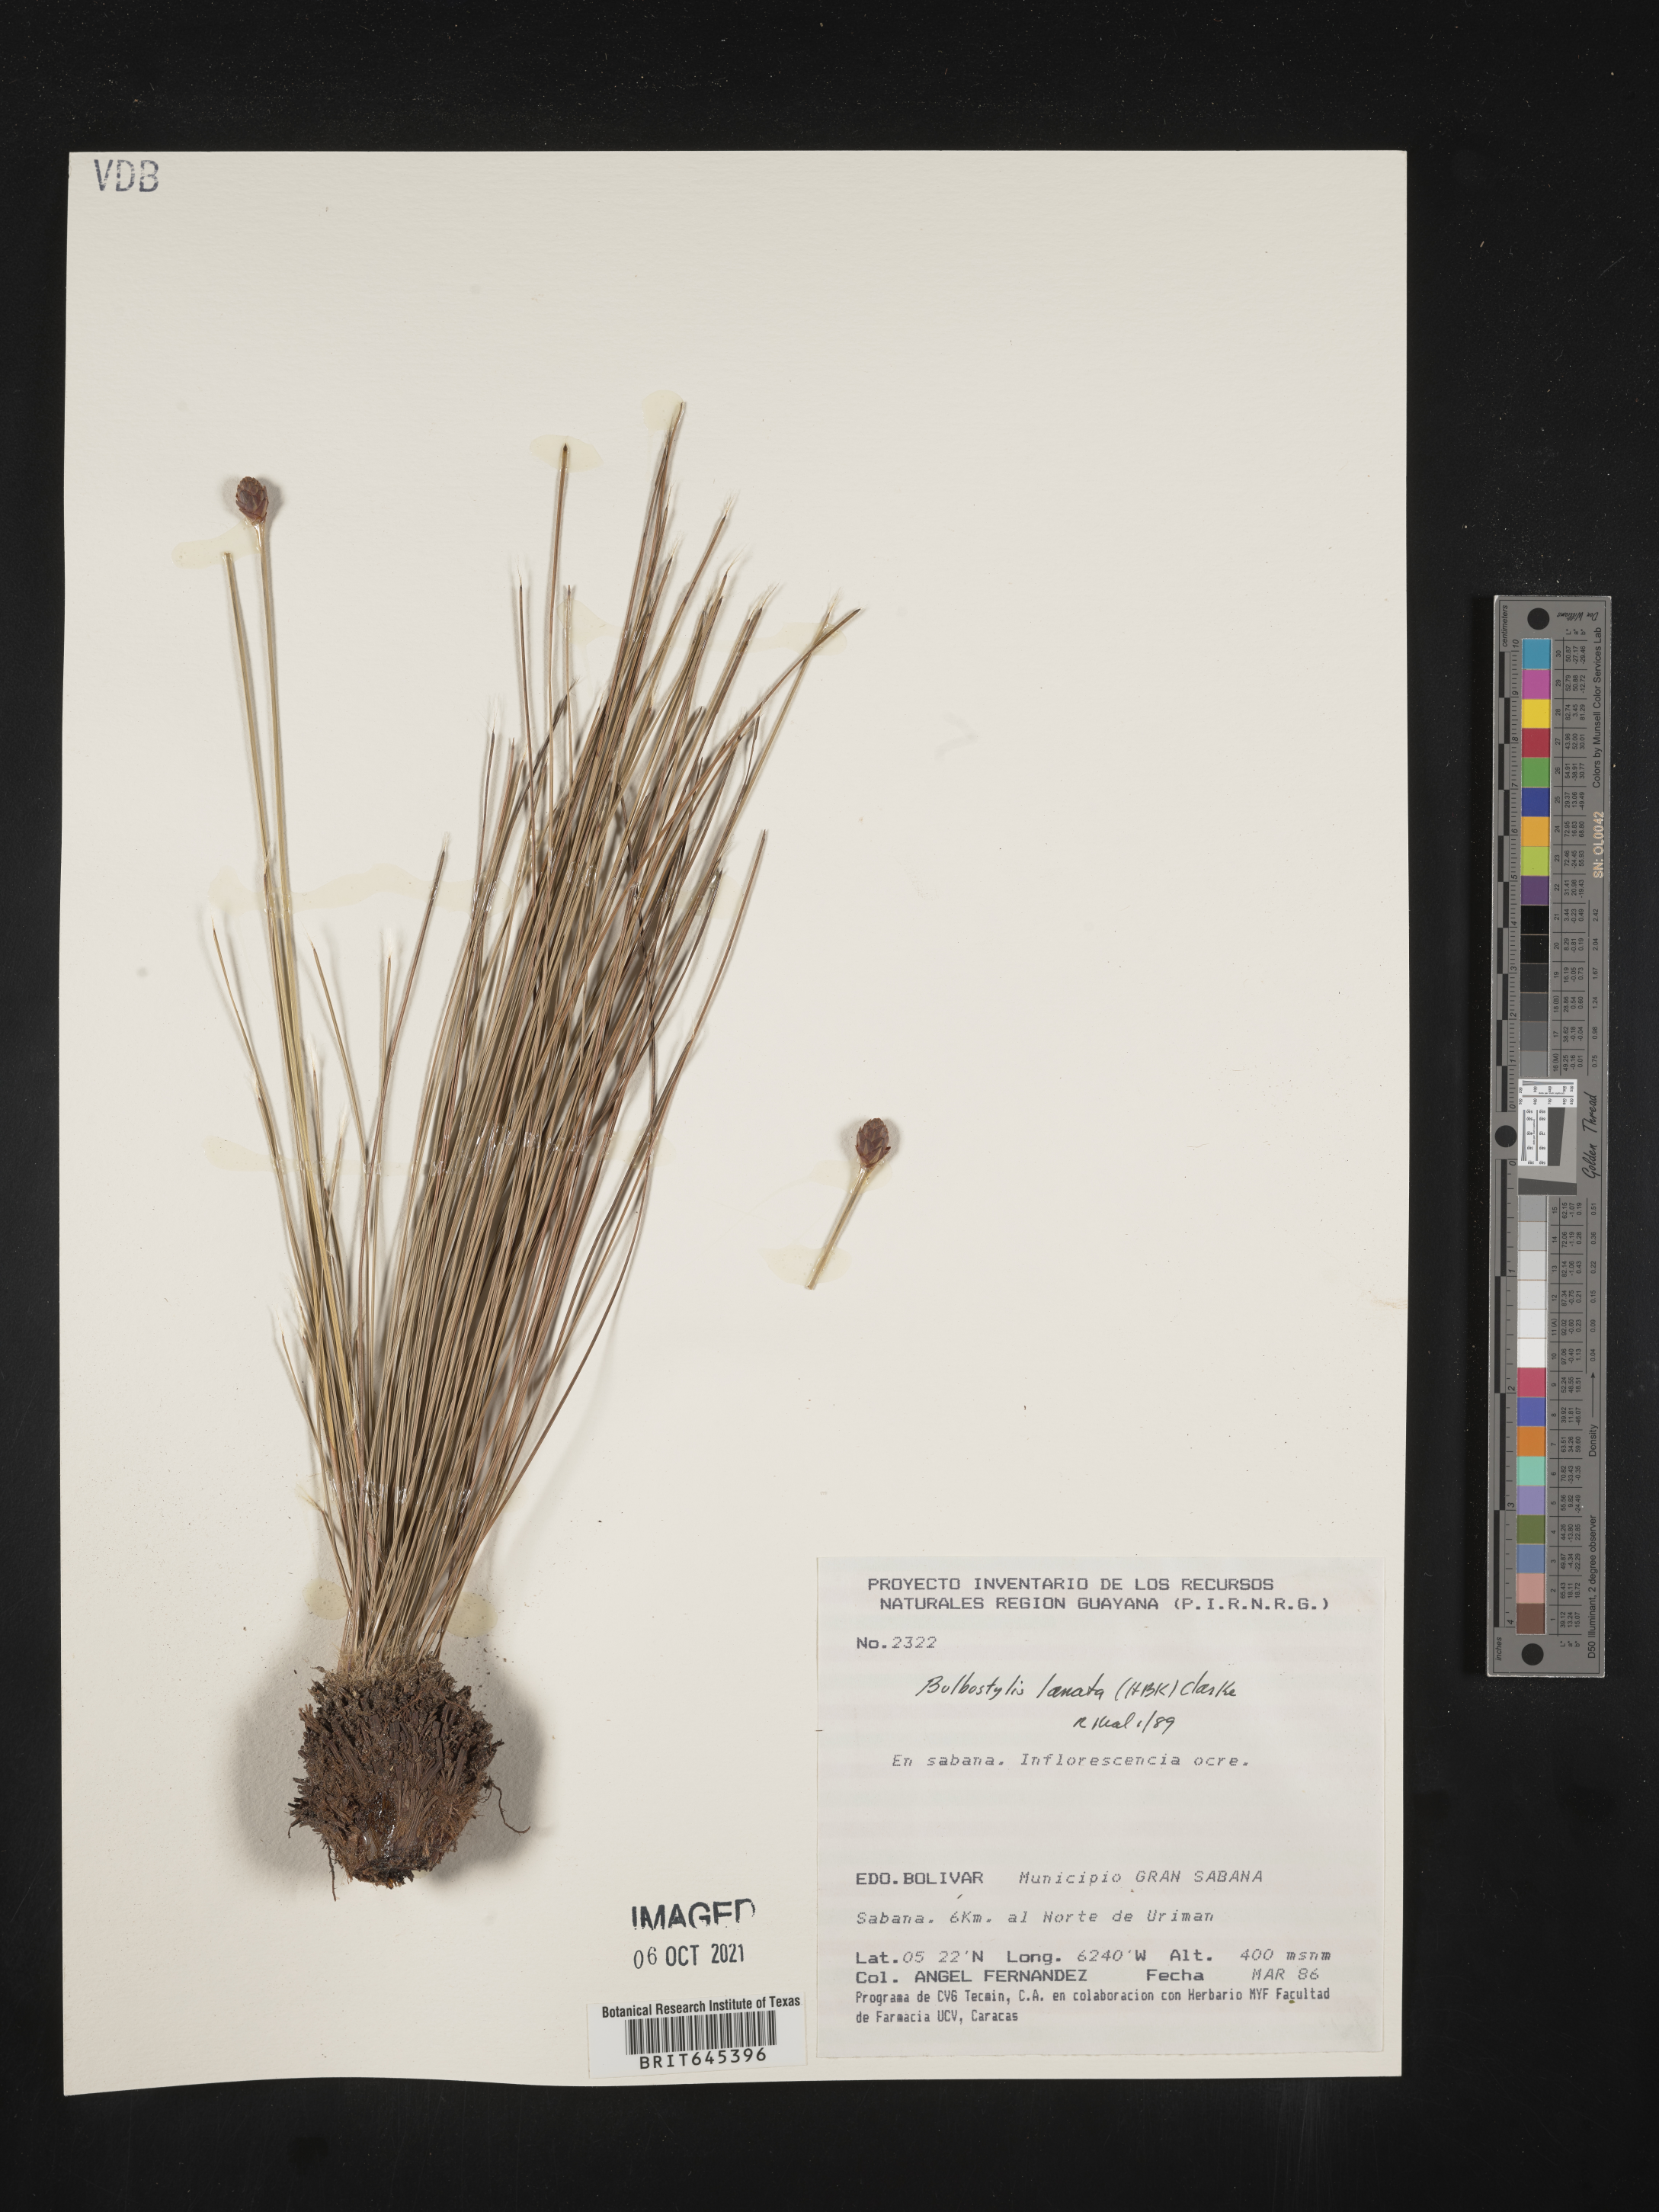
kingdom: Plantae
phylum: Tracheophyta
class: Liliopsida
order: Poales
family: Cyperaceae
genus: Bulbostylis
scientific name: Bulbostylis lanata
